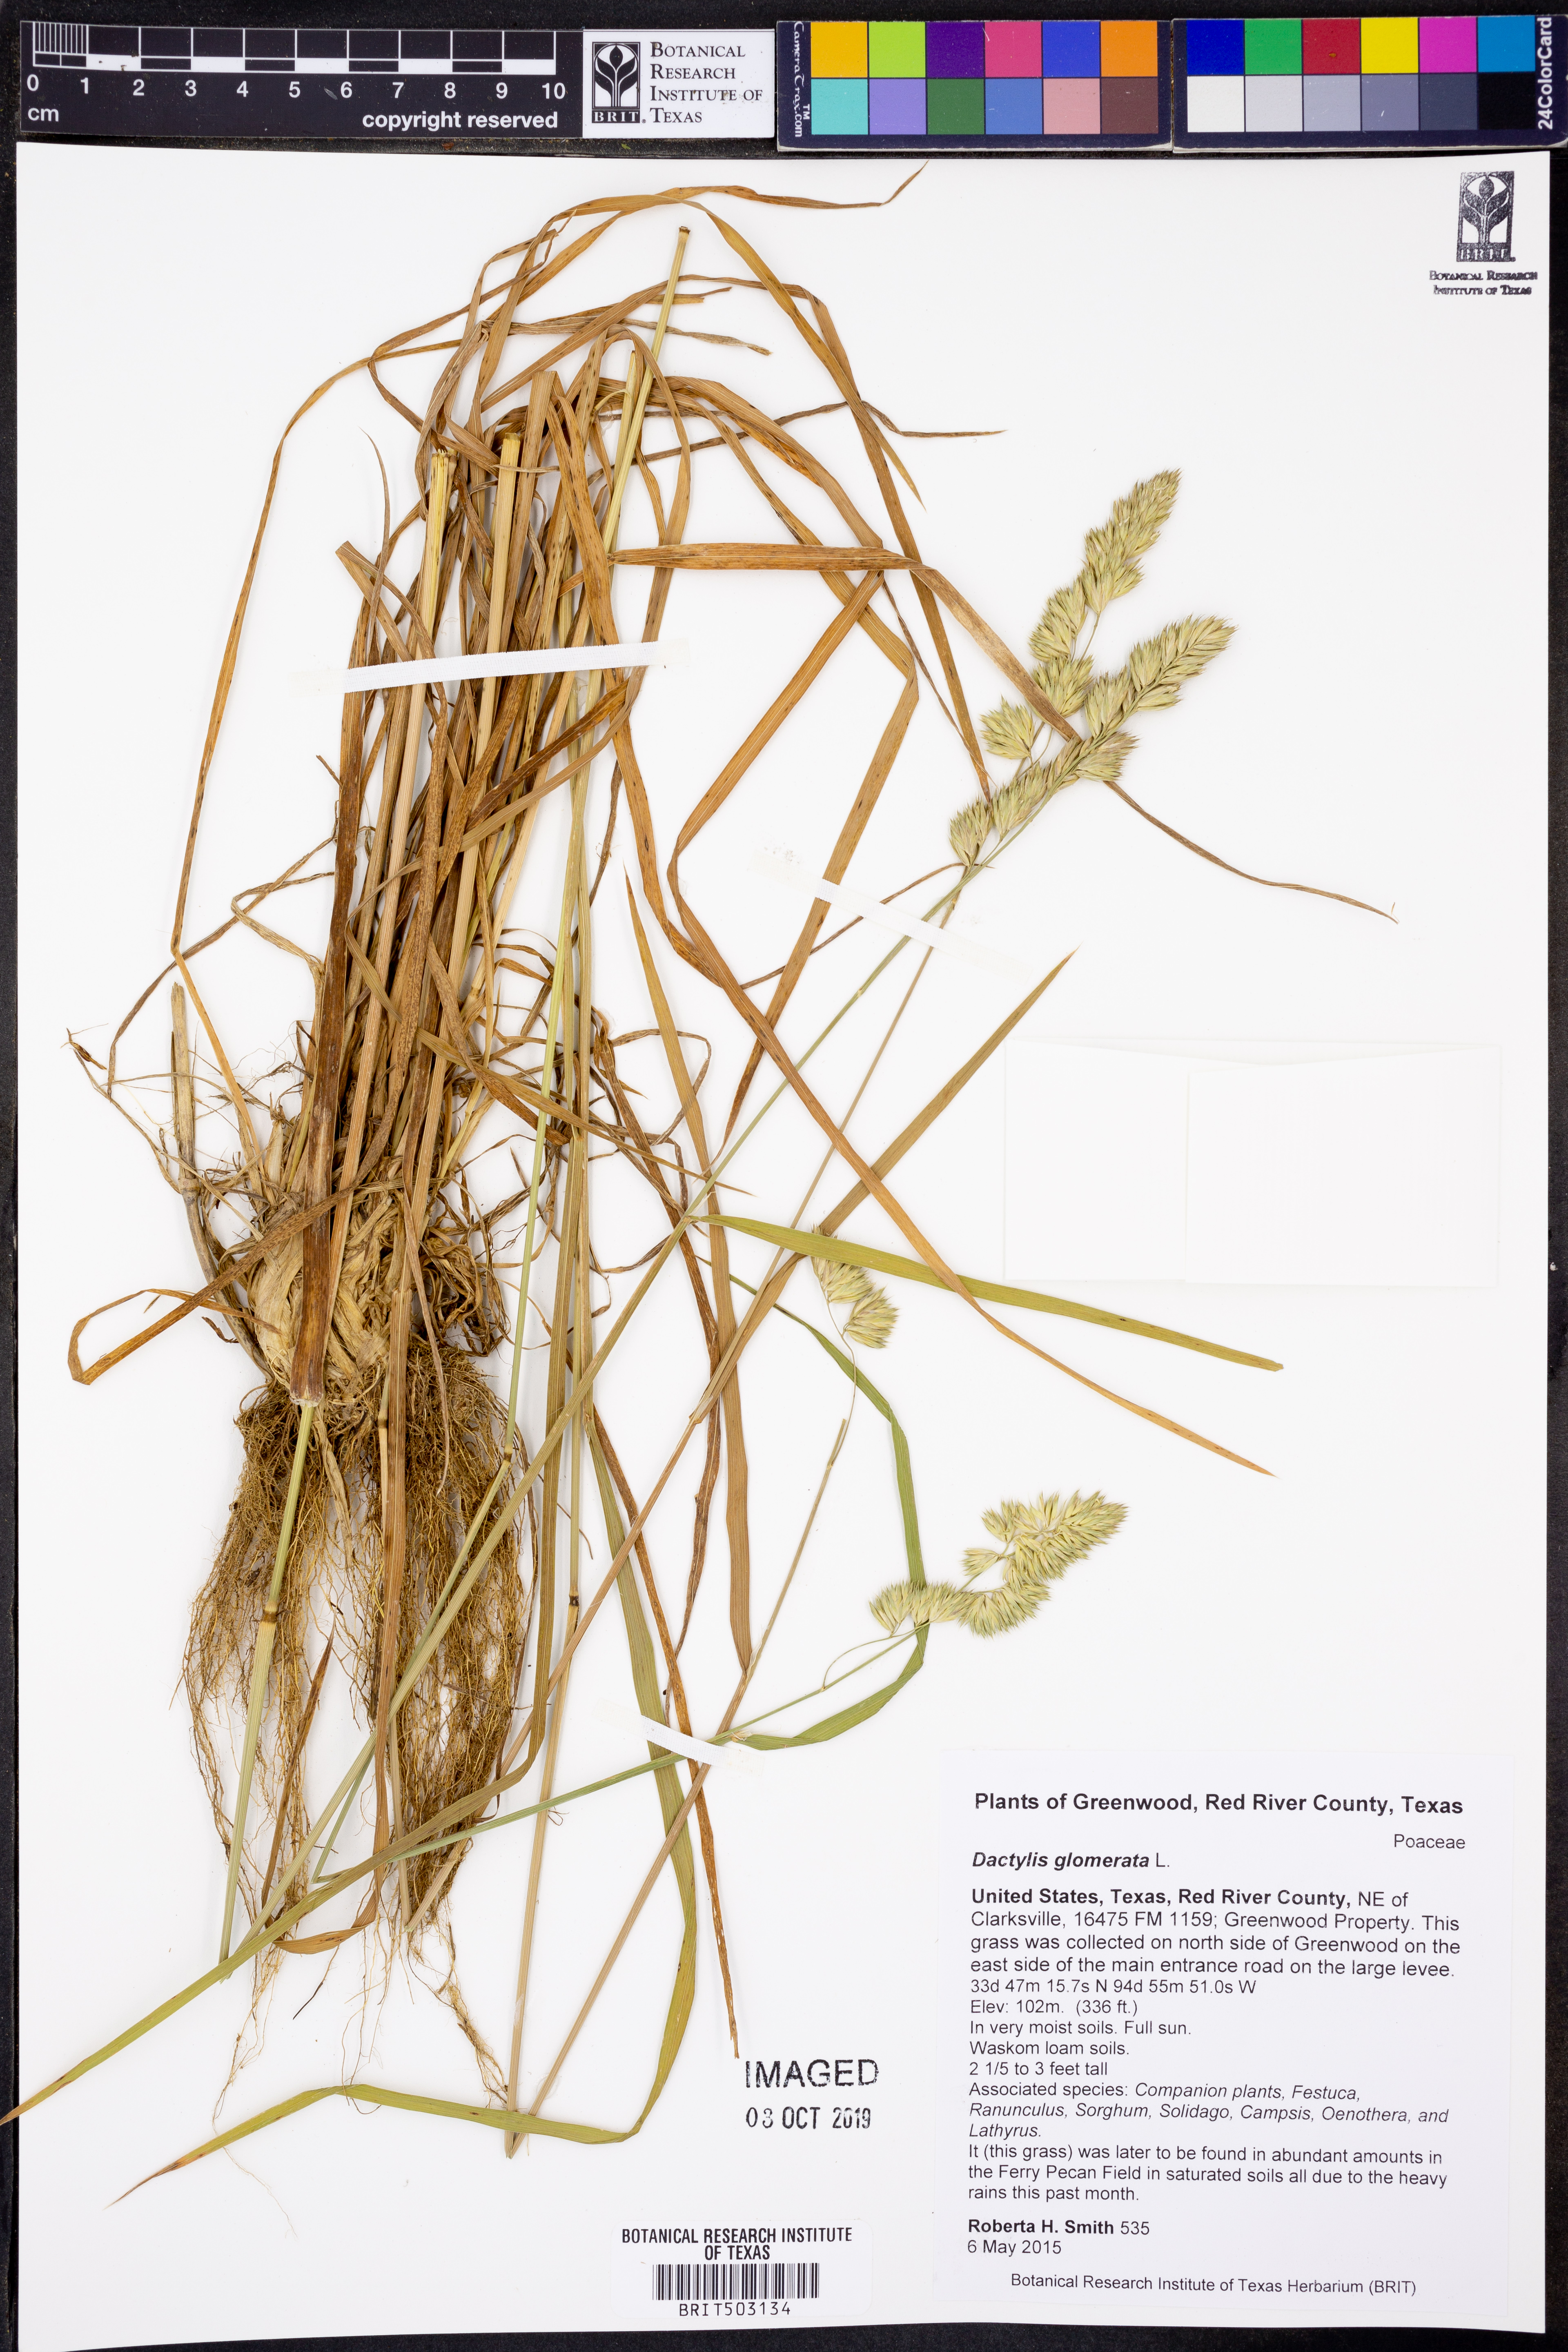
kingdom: Plantae
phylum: Tracheophyta
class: Liliopsida
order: Poales
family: Poaceae
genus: Dactylis
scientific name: Dactylis glomerata
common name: Orchardgrass
